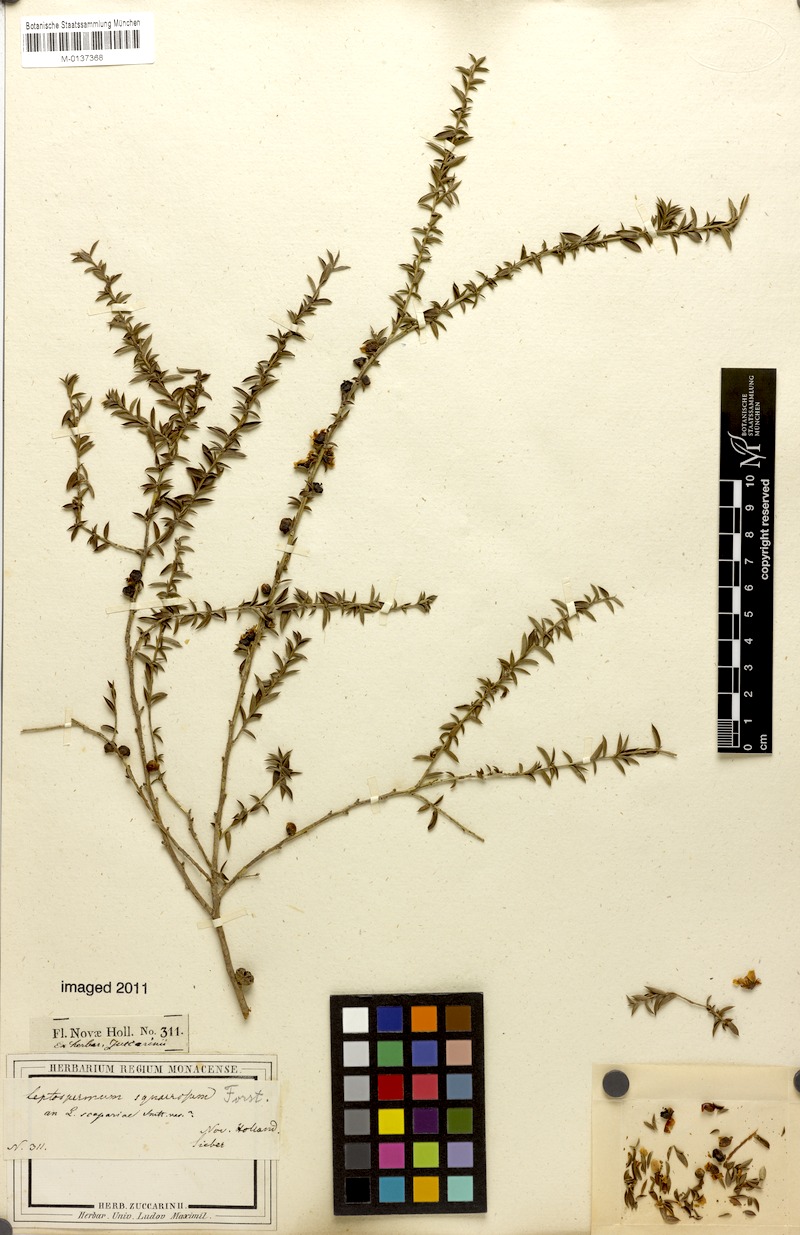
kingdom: Plantae
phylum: Tracheophyta
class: Magnoliopsida
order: Myrtales
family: Myrtaceae
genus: Leptospermum
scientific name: Leptospermum squarrosum
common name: Peach-blossom teatree
